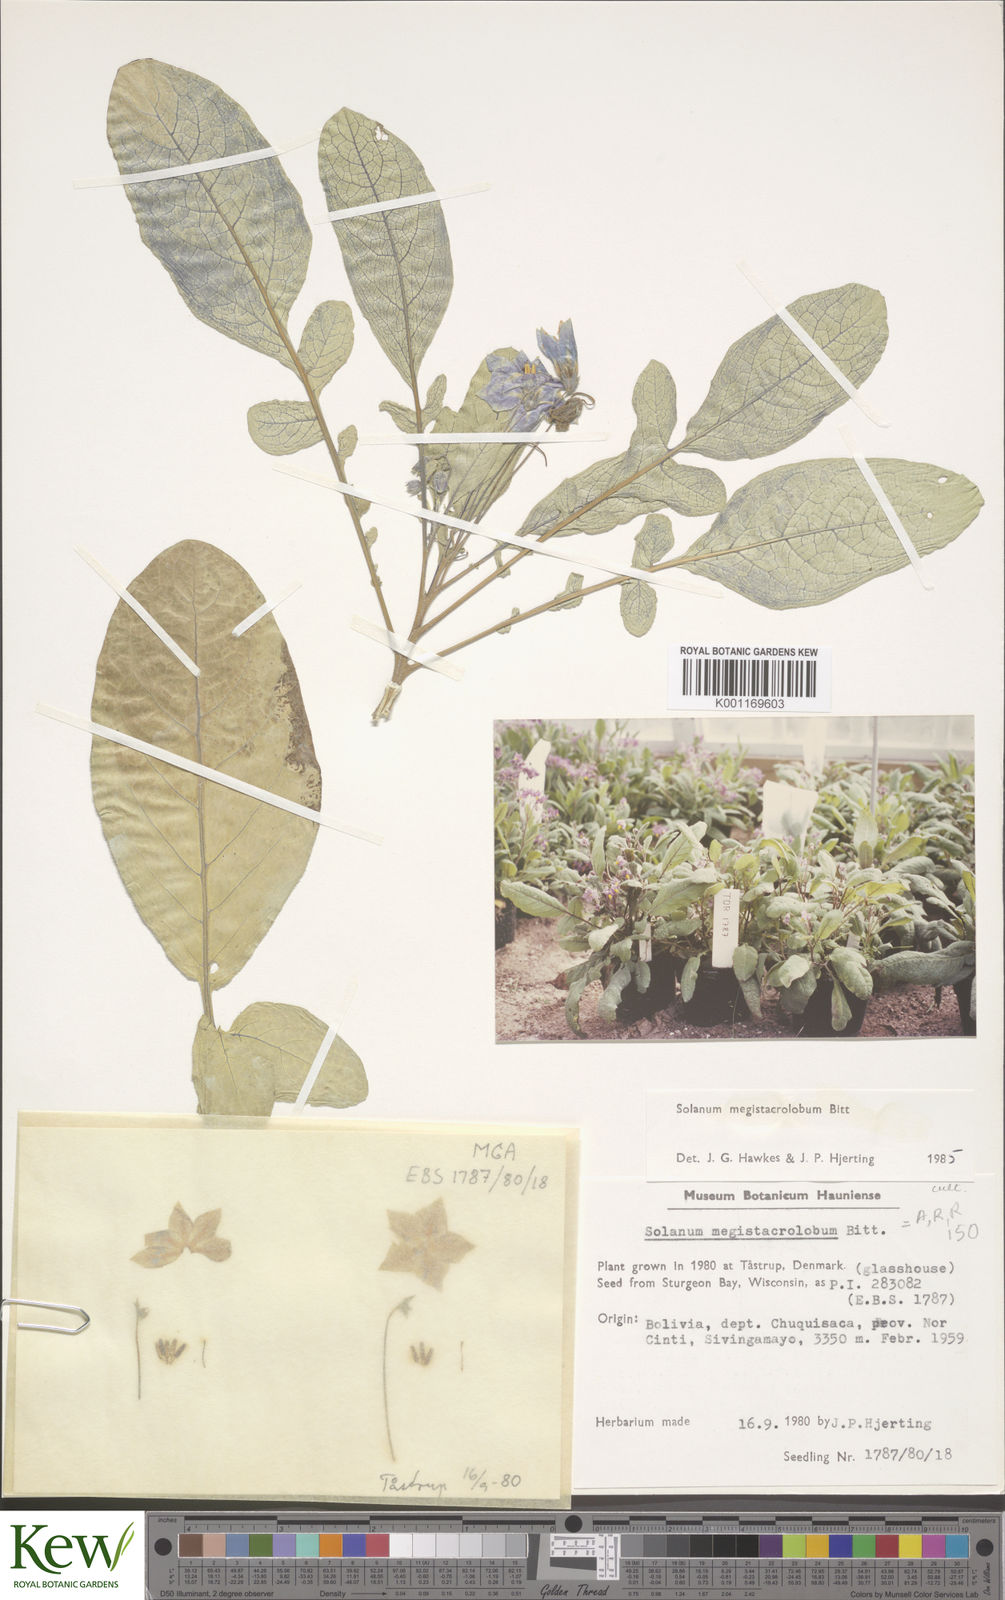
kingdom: Plantae
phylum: Tracheophyta
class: Magnoliopsida
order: Solanales
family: Solanaceae
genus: Solanum
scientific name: Solanum boliviense
